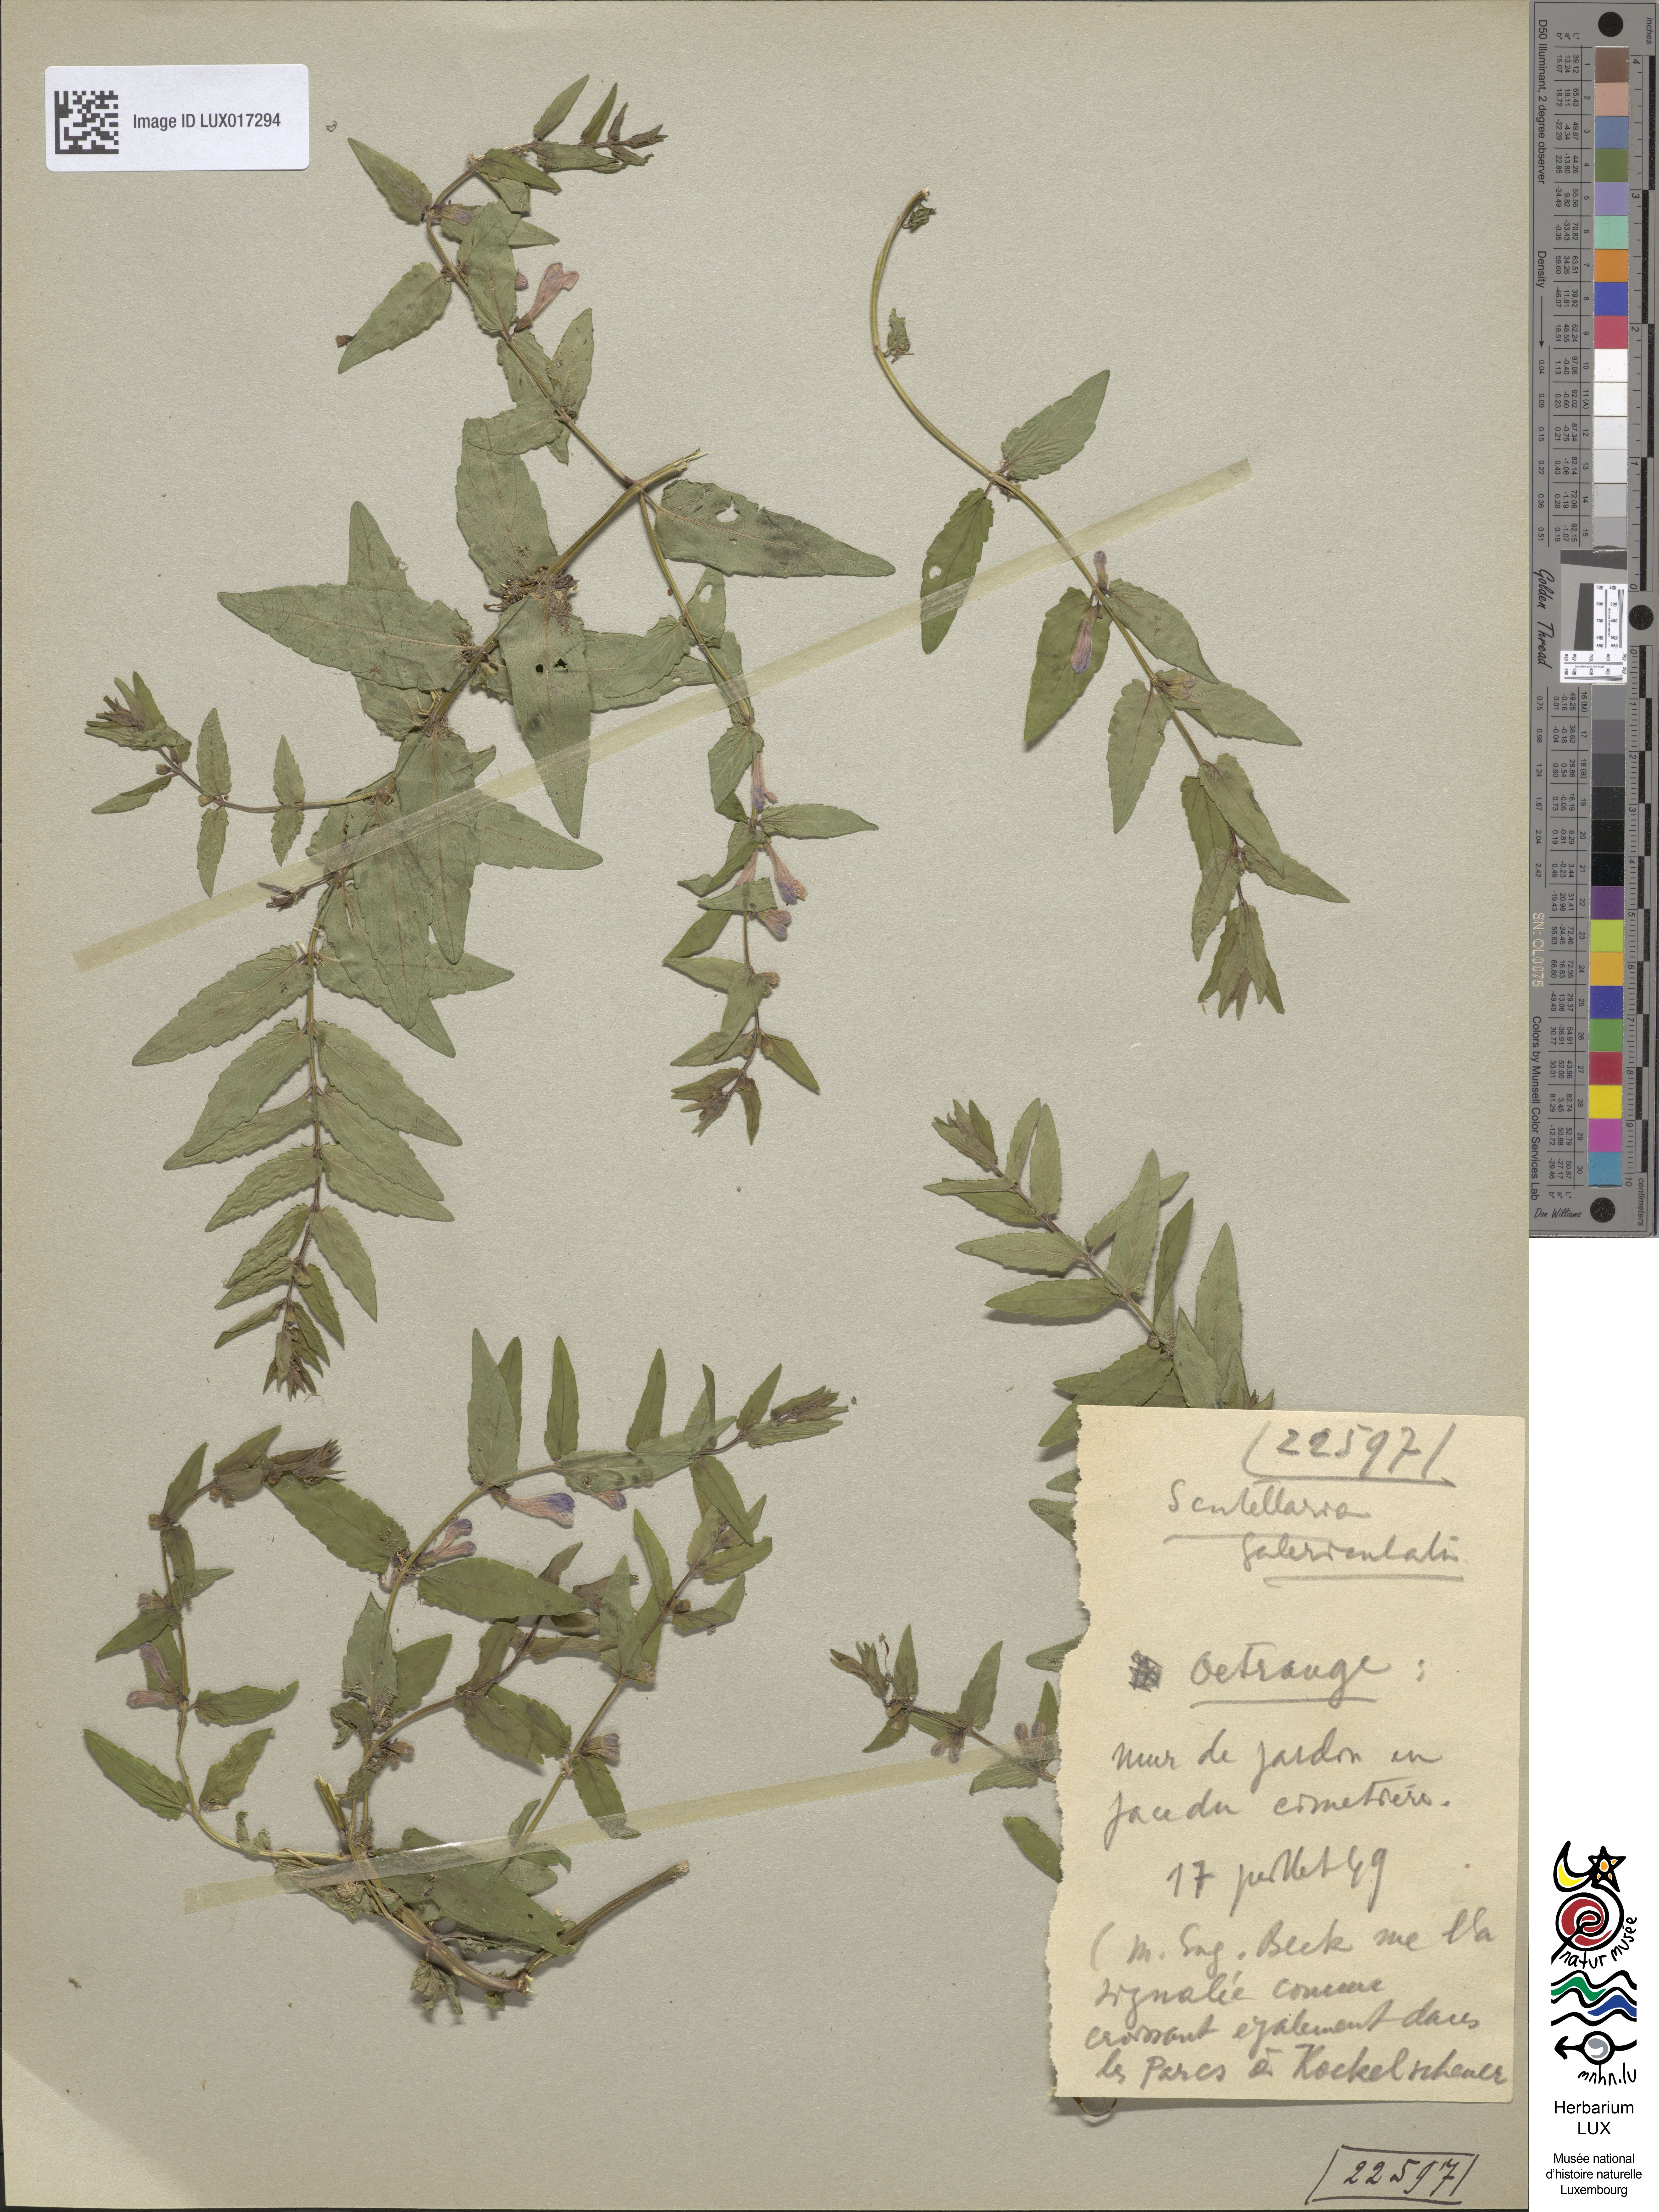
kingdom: Plantae
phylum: Tracheophyta
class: Magnoliopsida
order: Lamiales
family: Lamiaceae
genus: Scutellaria
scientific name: Scutellaria galericulata
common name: Skullcap
